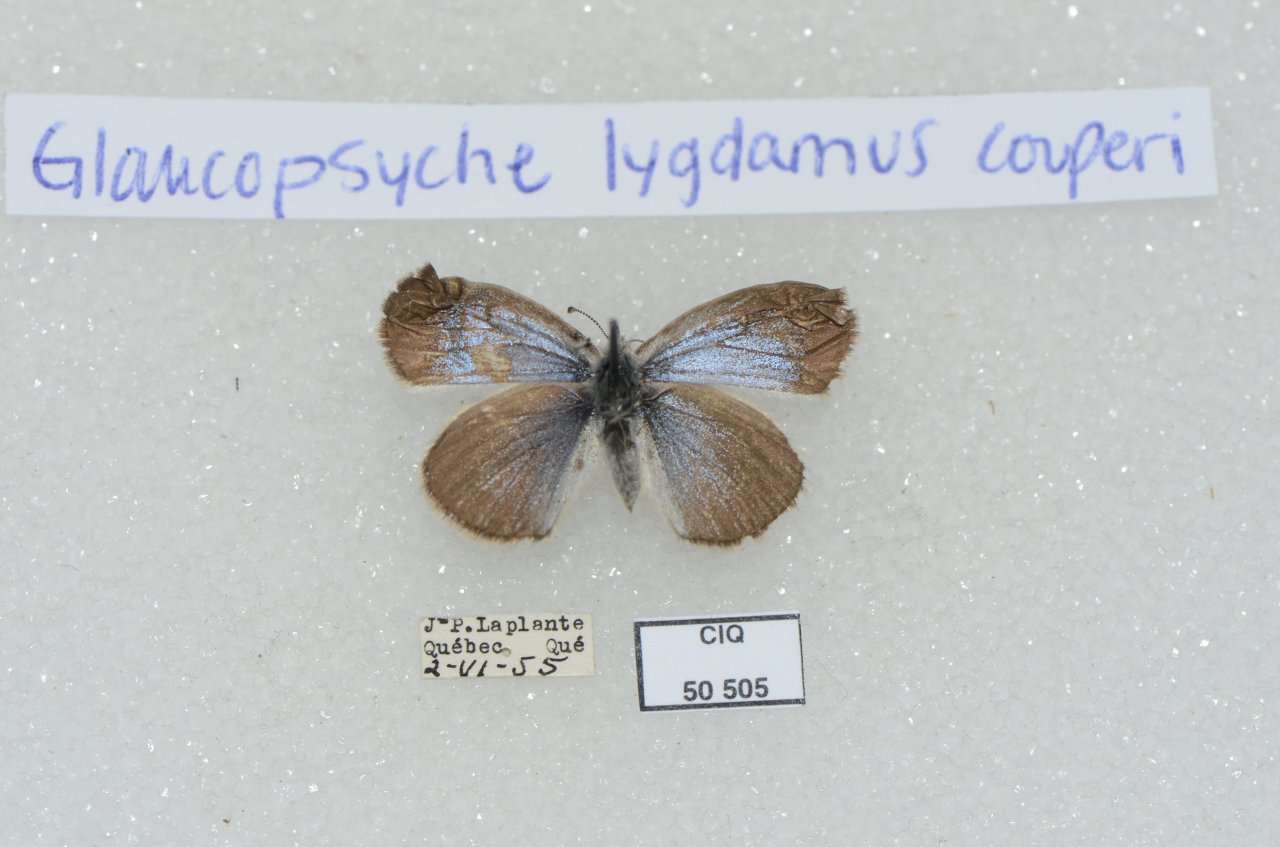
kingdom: Animalia
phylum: Arthropoda
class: Insecta
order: Lepidoptera
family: Lycaenidae
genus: Glaucopsyche
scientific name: Glaucopsyche lygdamus
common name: Silvery Blue
